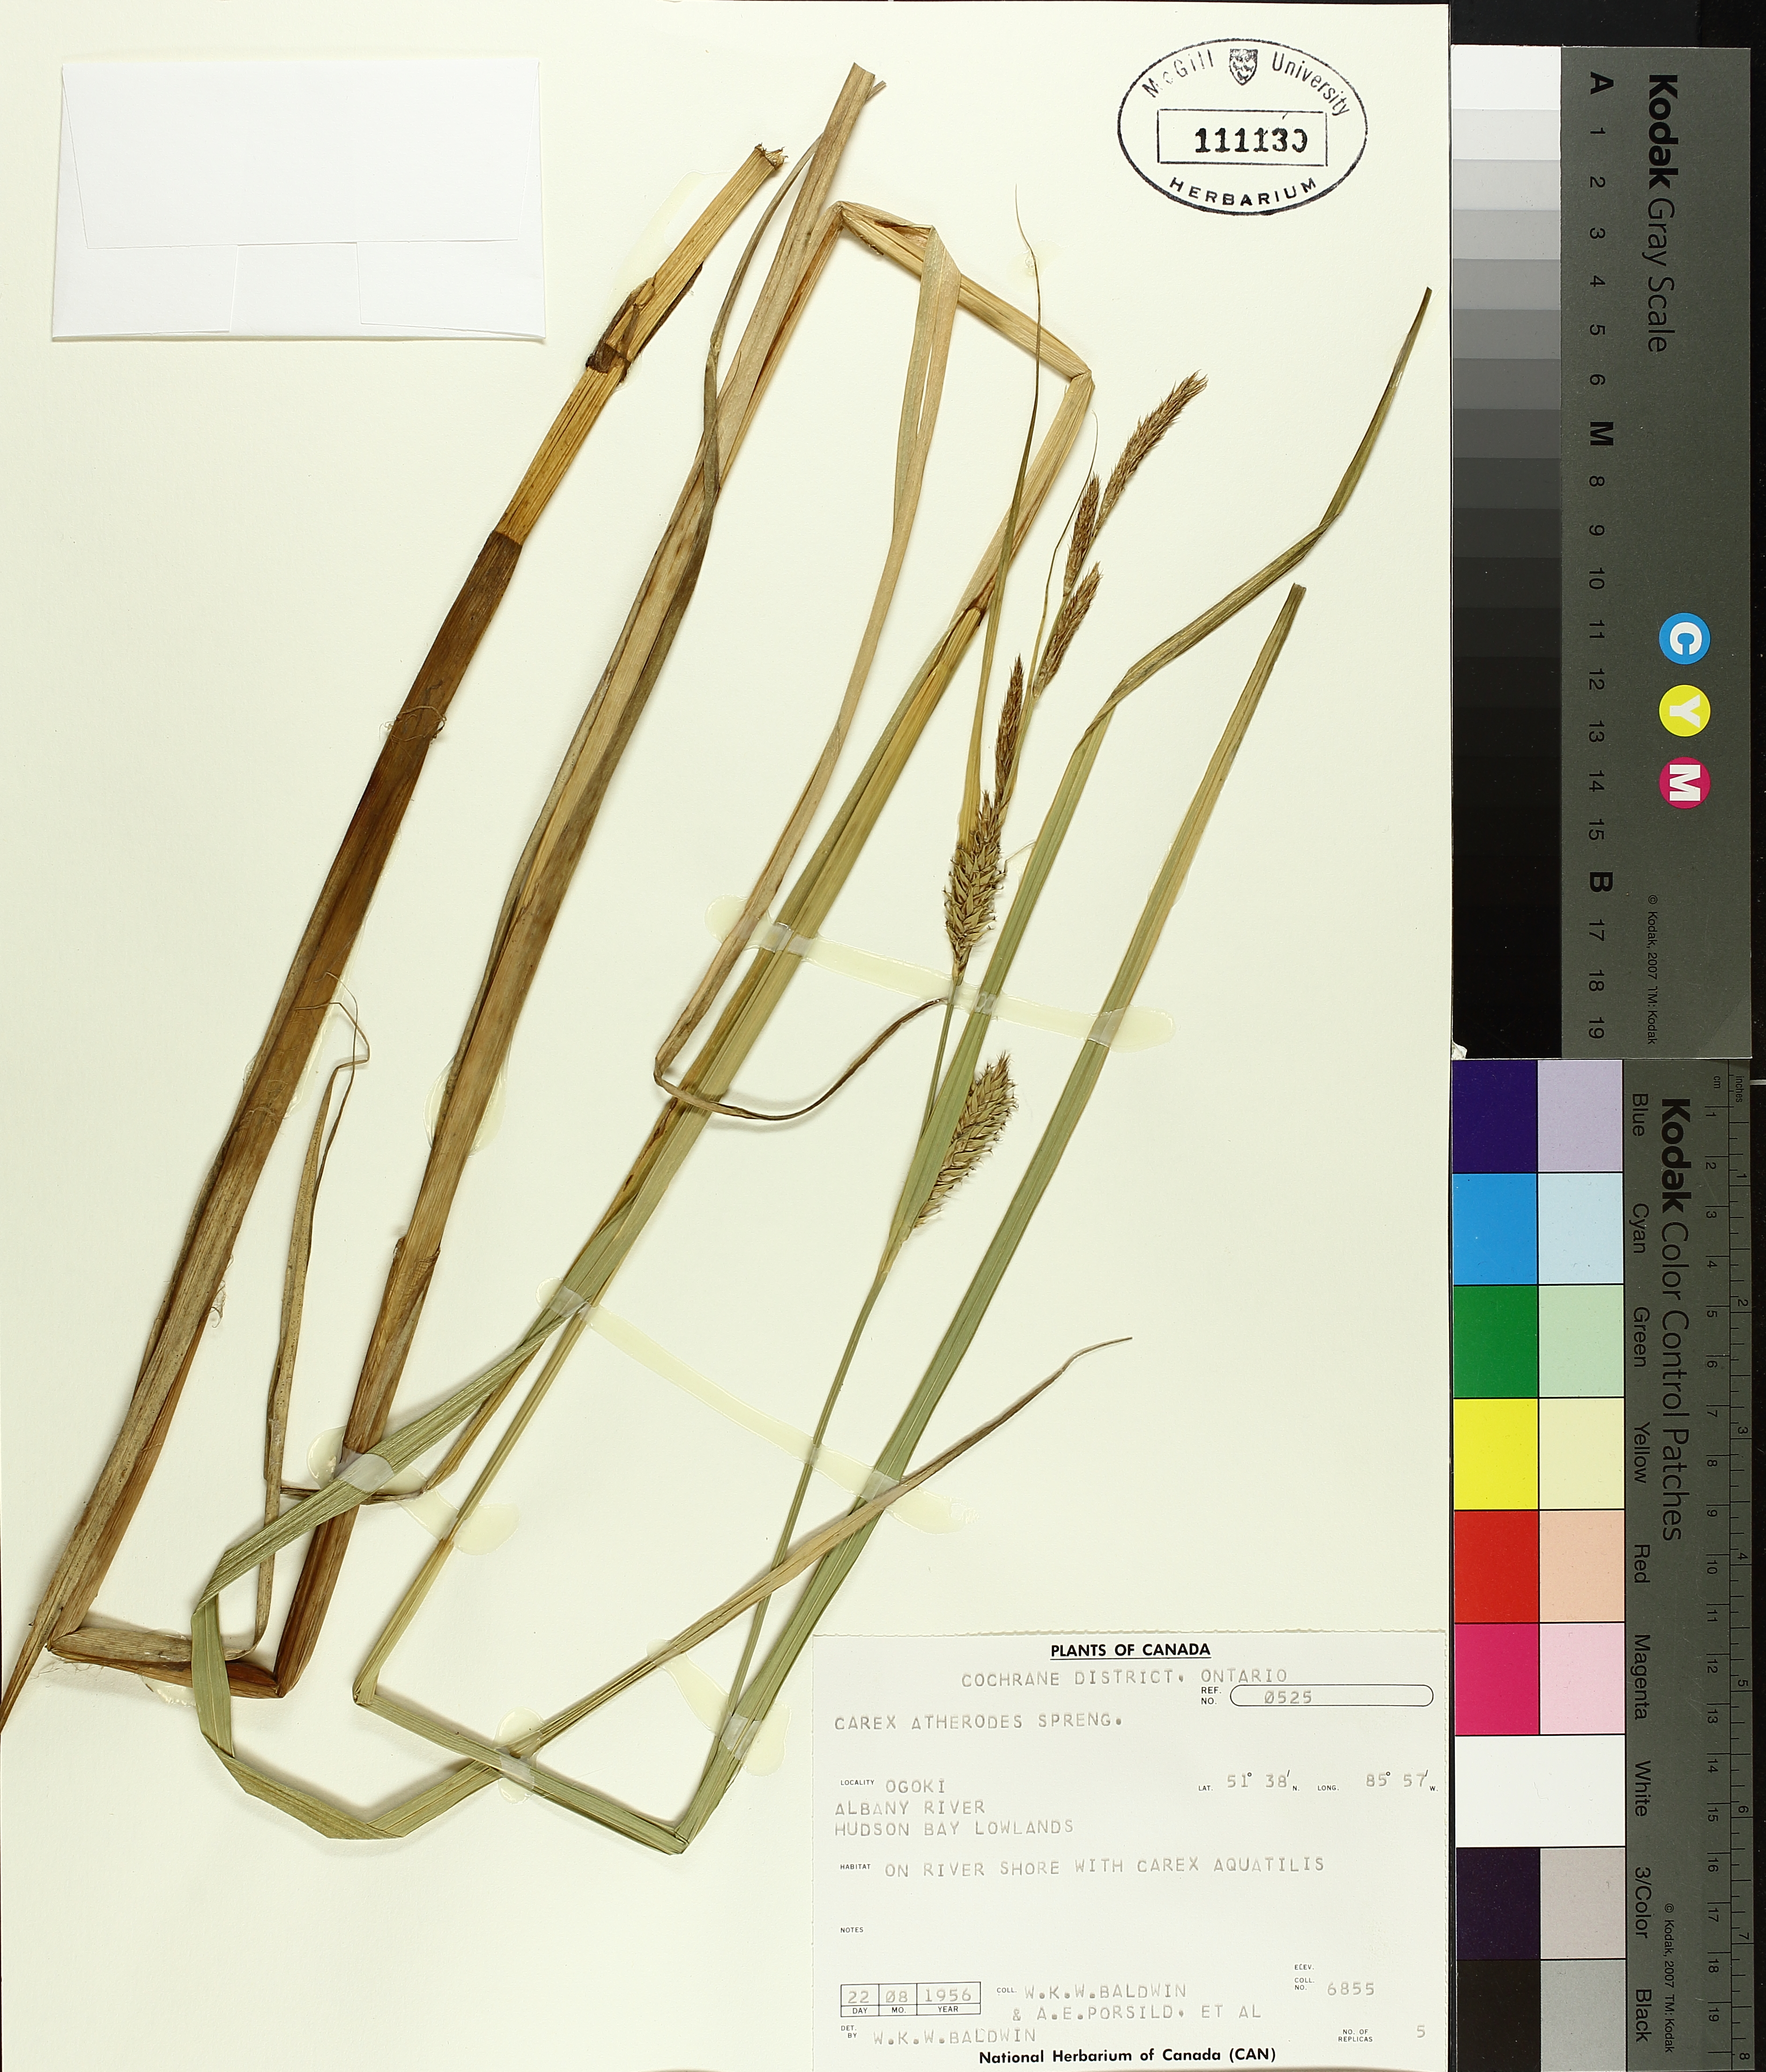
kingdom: Plantae
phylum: Tracheophyta
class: Liliopsida
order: Poales
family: Cyperaceae
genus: Carex
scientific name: Carex atherodes
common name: Wheat sedge
